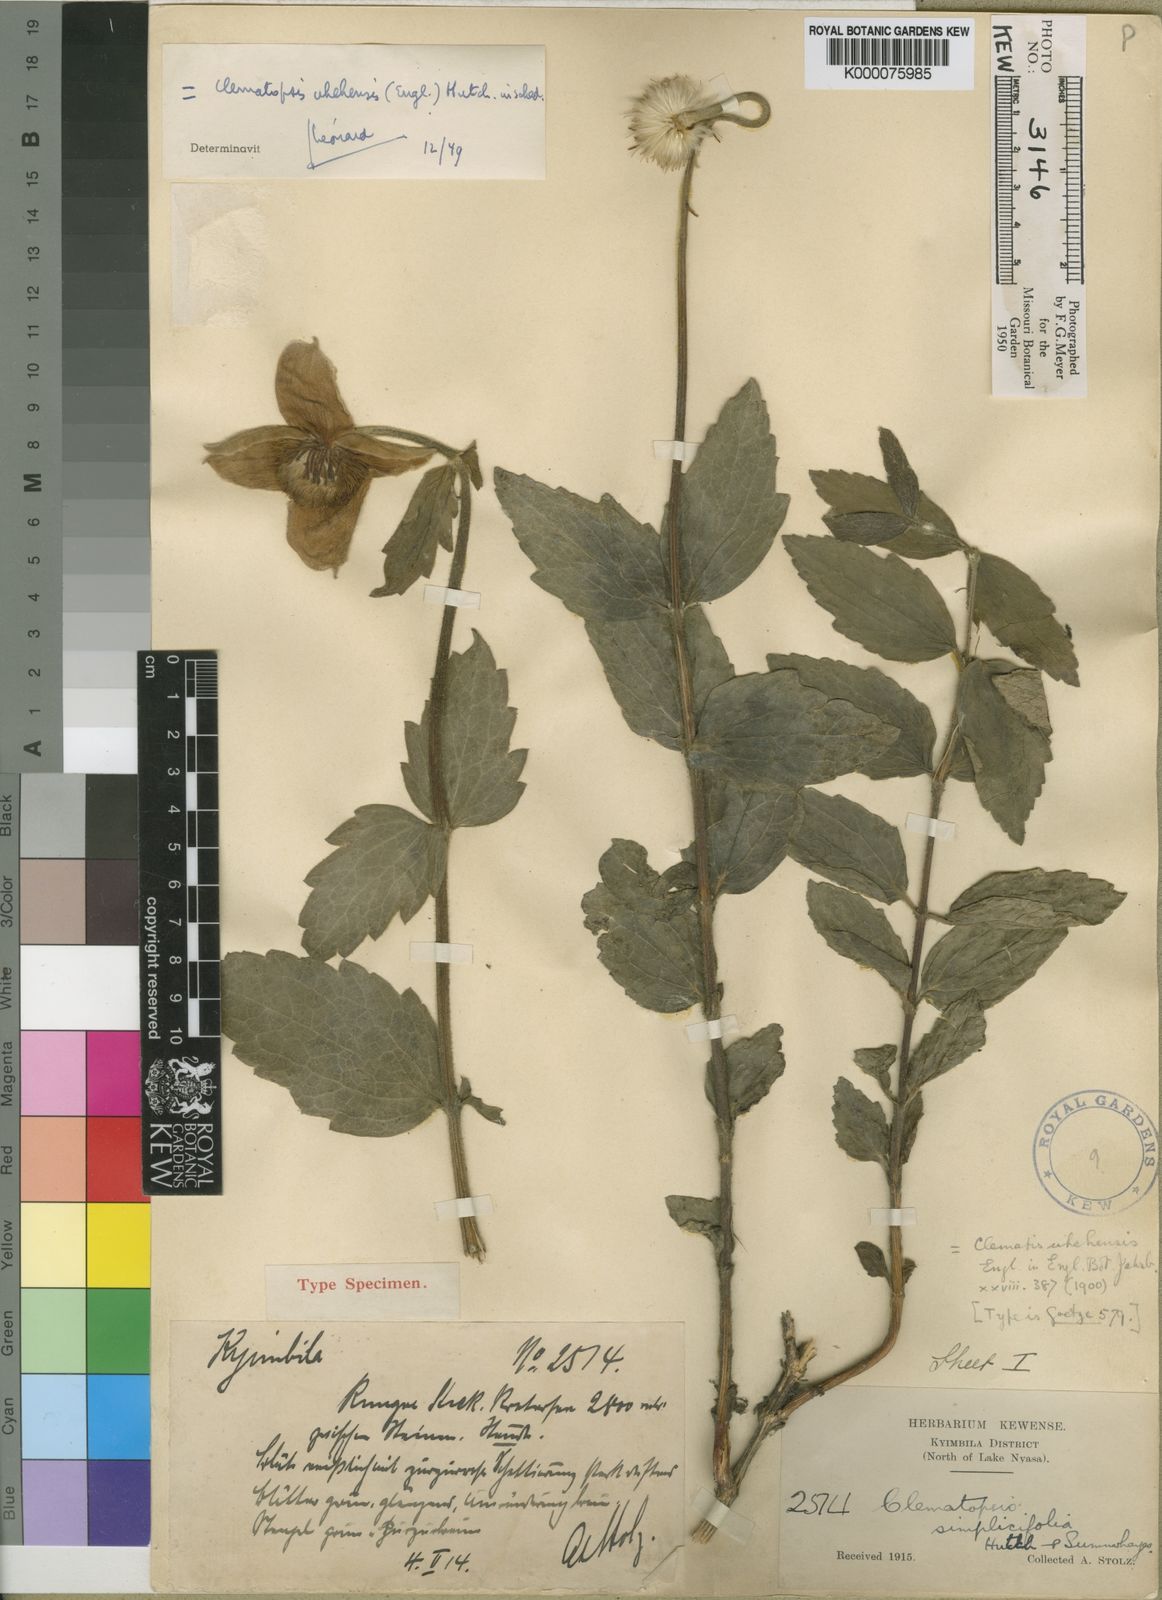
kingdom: Plantae
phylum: Tracheophyta
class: Magnoliopsida
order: Ranunculales
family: Ranunculaceae
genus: Clematis
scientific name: Clematis uhehensis
